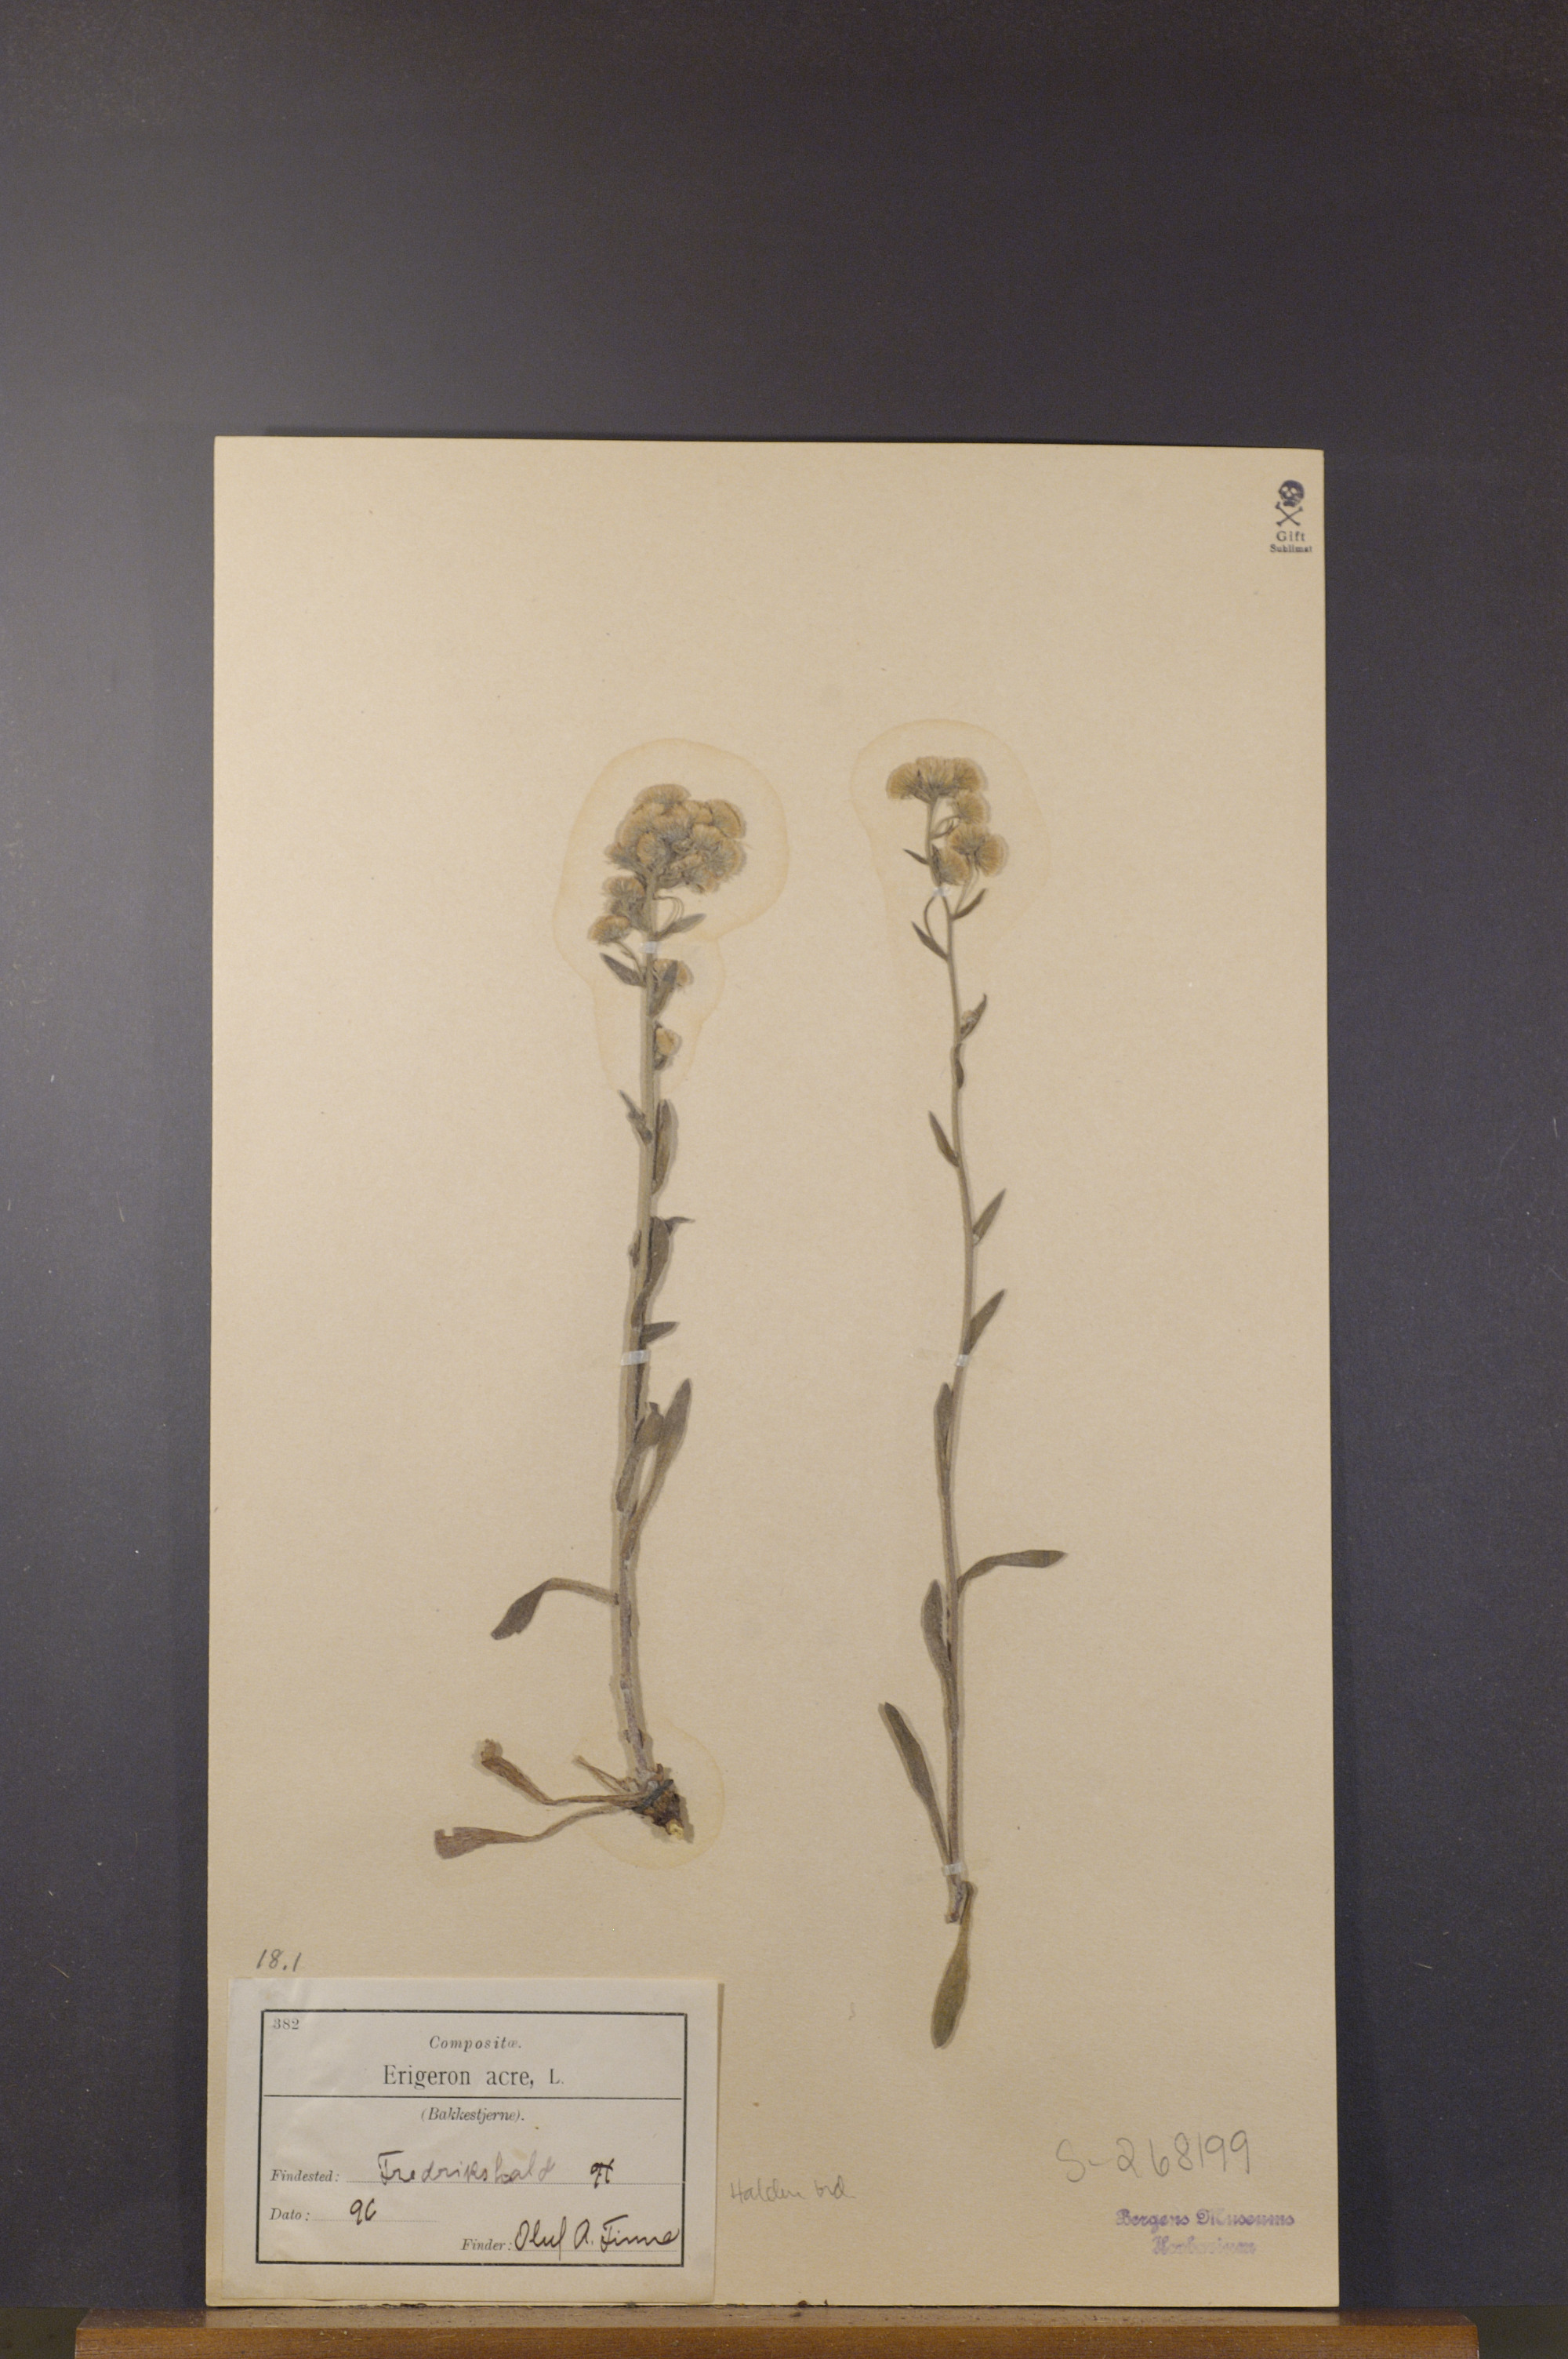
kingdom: Plantae
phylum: Tracheophyta
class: Magnoliopsida
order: Asterales
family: Asteraceae
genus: Erigeron
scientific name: Erigeron acris
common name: Blue fleabane
